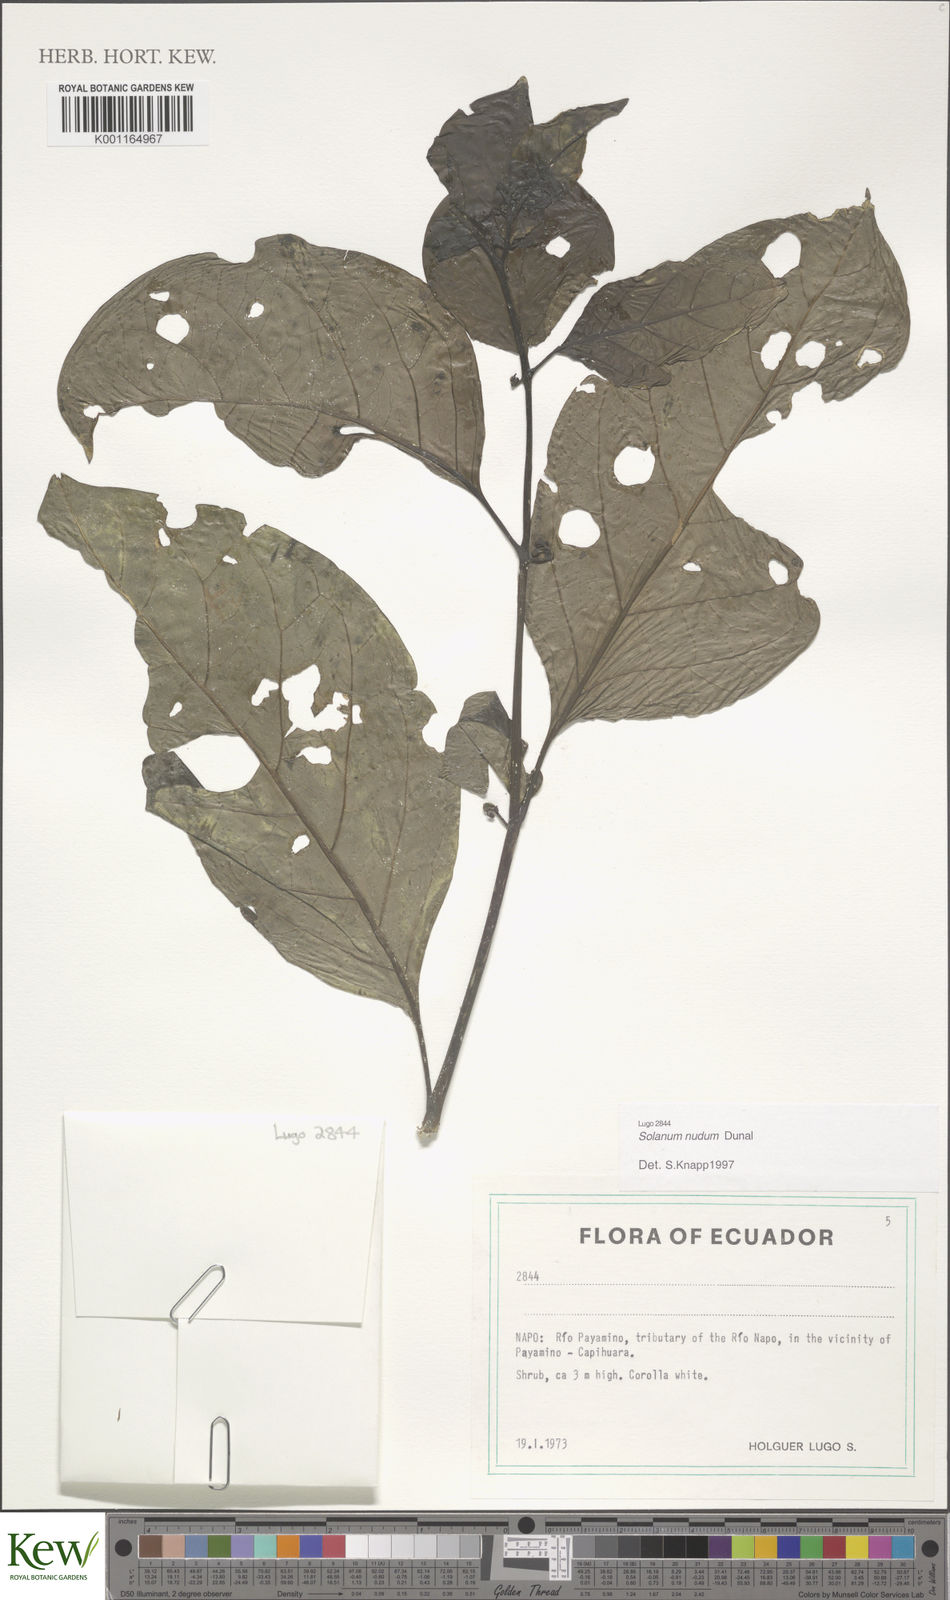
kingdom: Plantae
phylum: Tracheophyta
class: Magnoliopsida
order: Solanales
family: Solanaceae
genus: Solanum
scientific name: Solanum nudum
